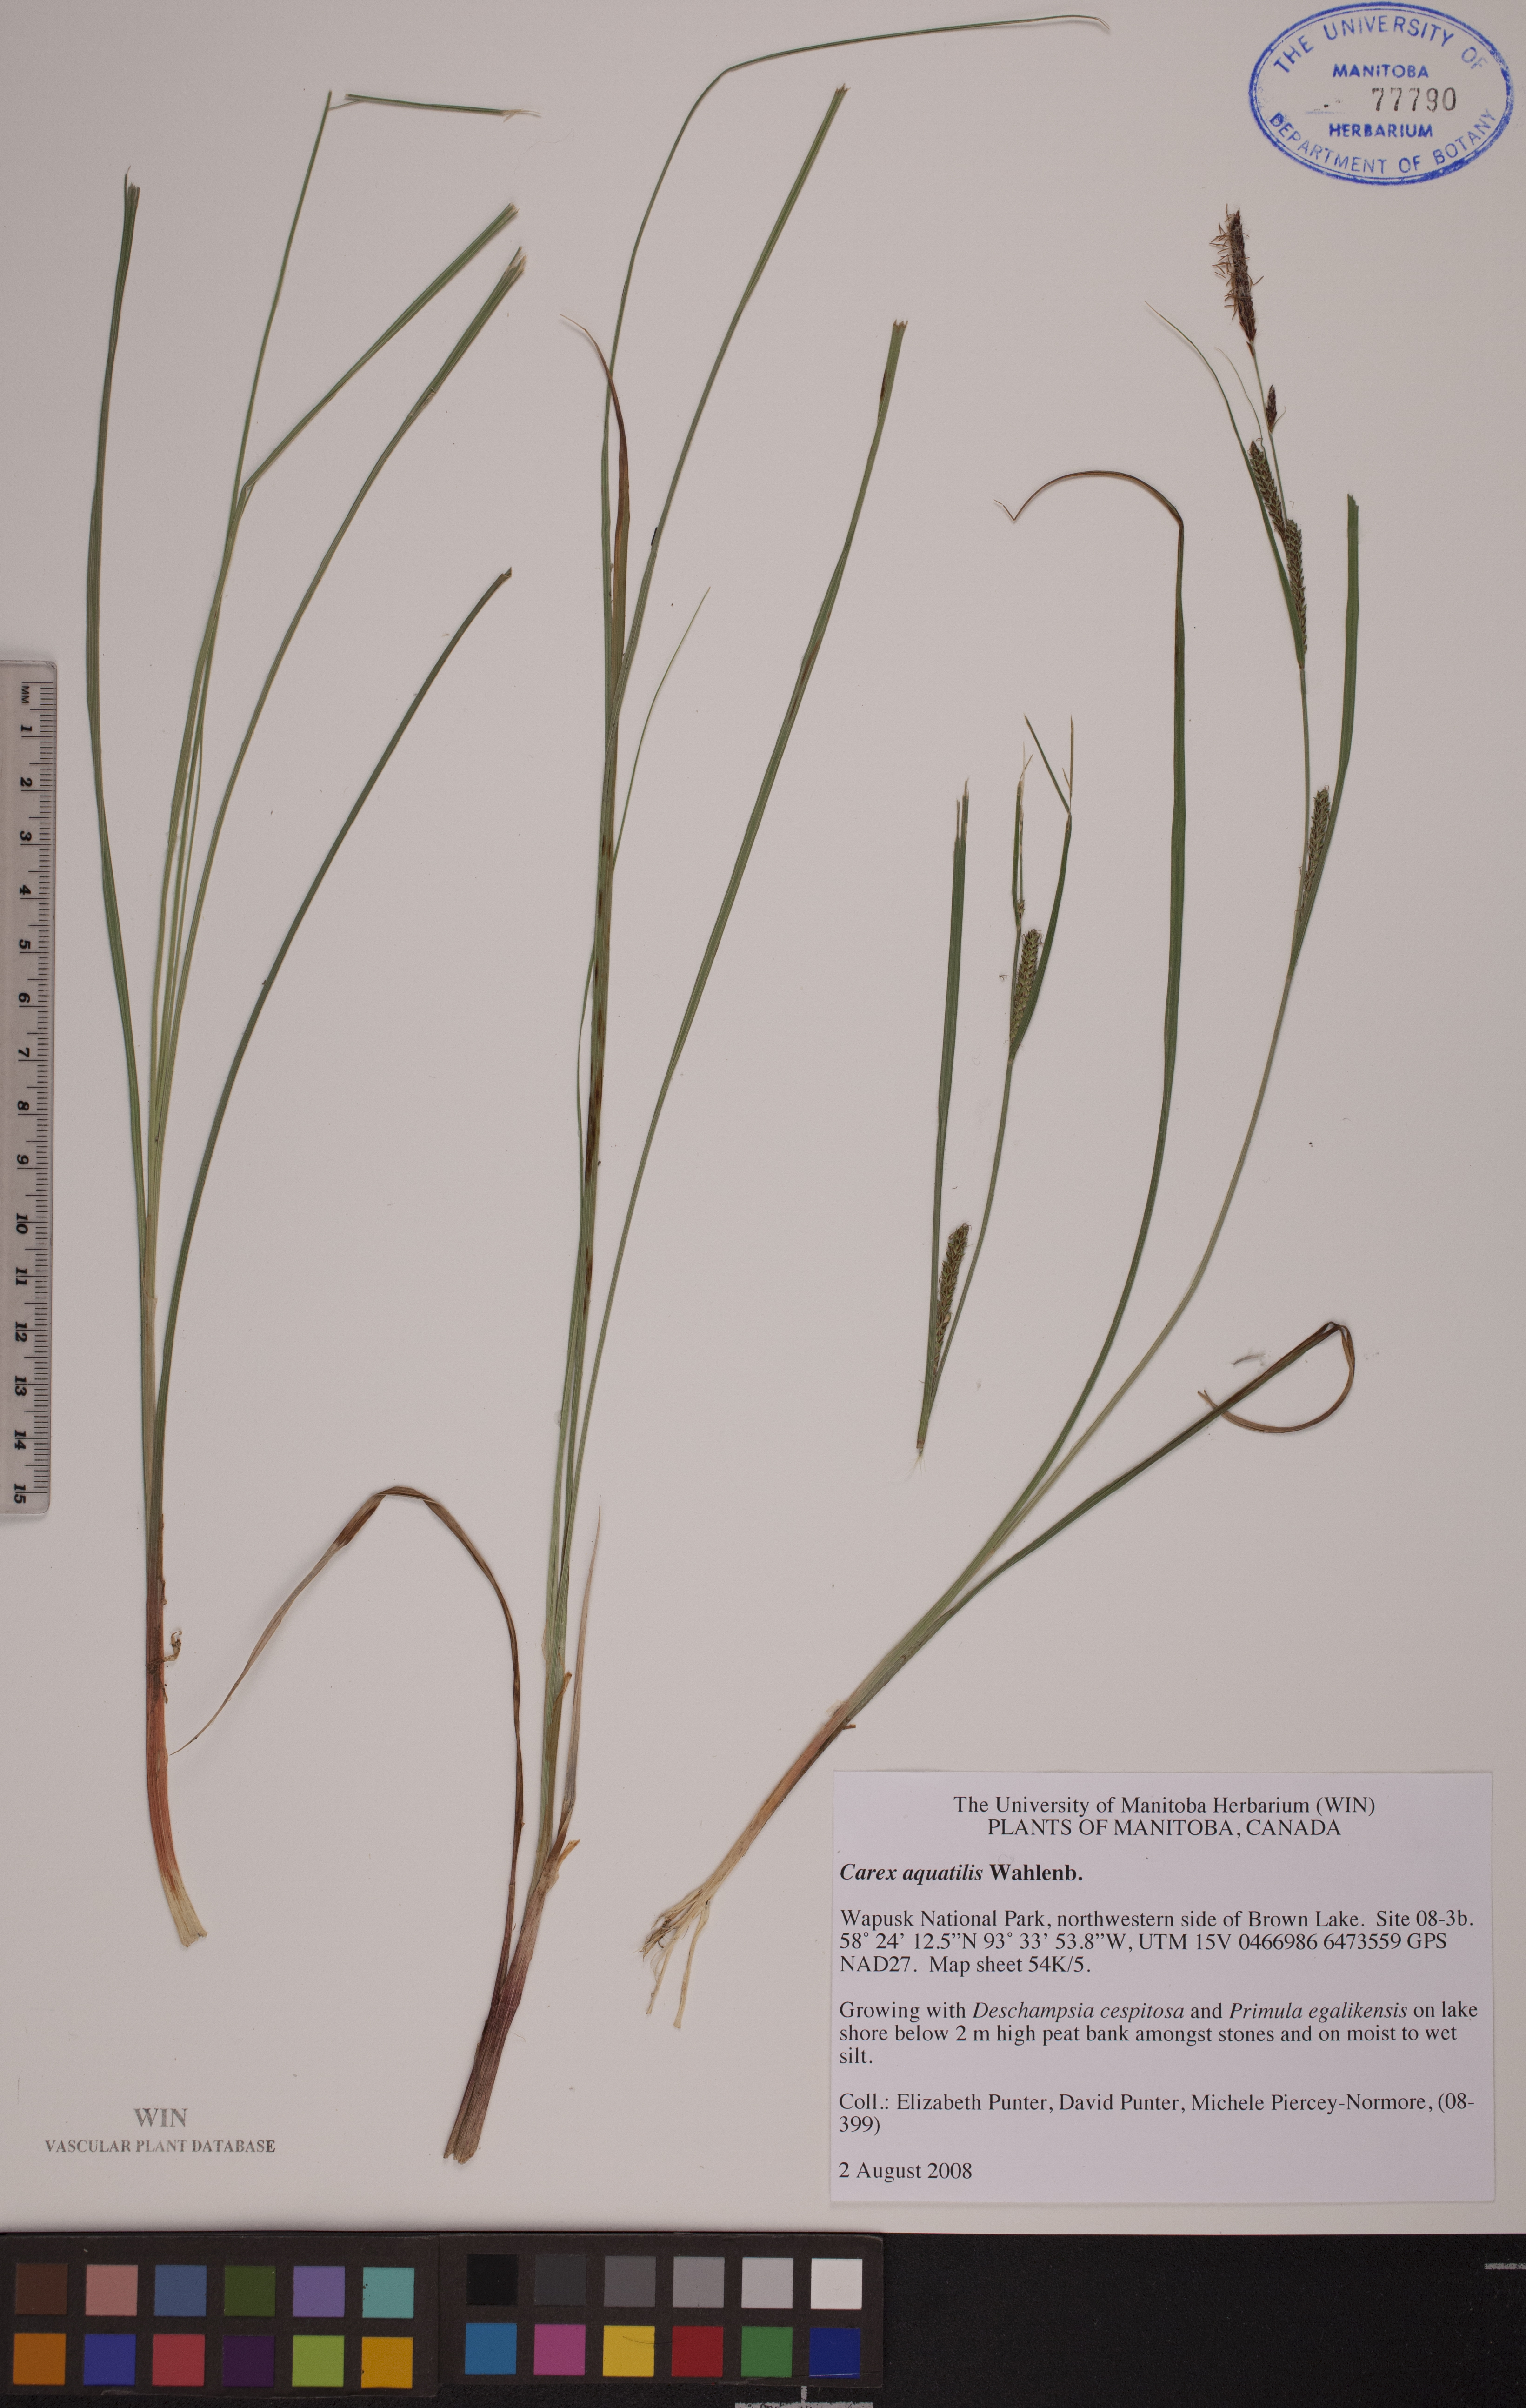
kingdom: Plantae
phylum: Tracheophyta
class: Liliopsida
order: Poales
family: Cyperaceae
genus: Carex
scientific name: Carex aquatilis
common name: Water sedge
